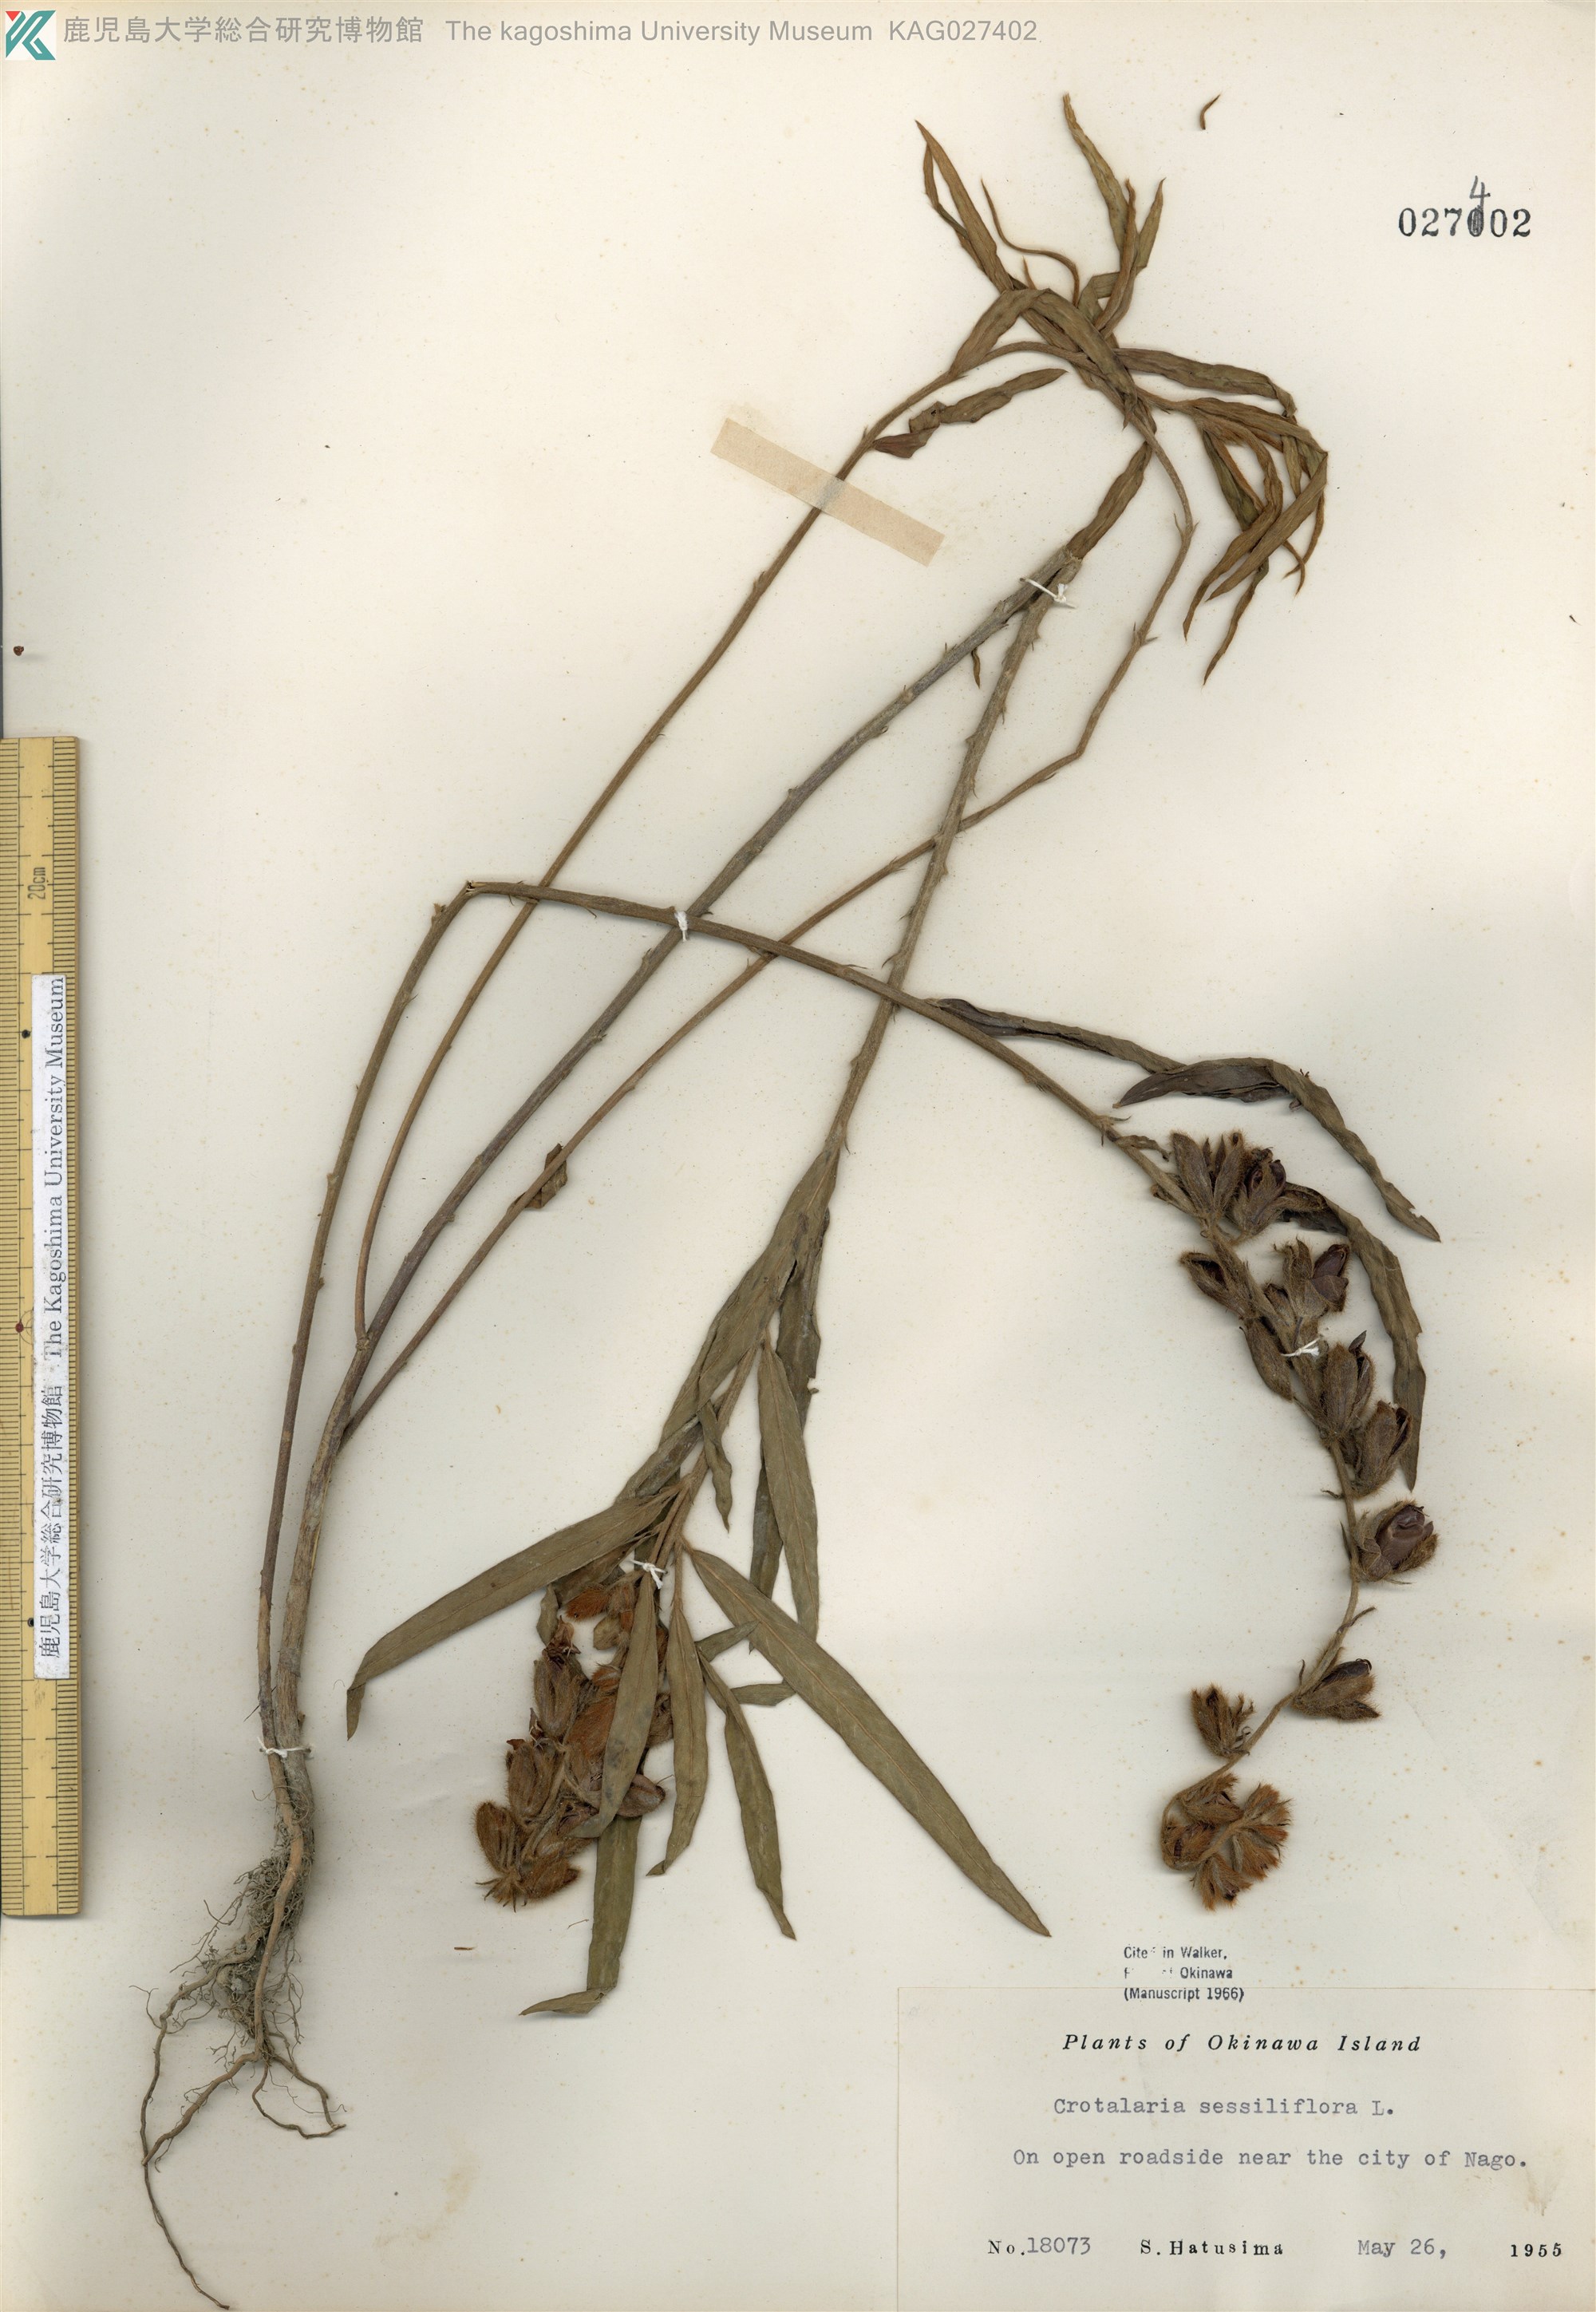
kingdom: Plantae
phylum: Tracheophyta
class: Magnoliopsida
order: Fabales
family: Fabaceae
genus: Crotalaria
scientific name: Crotalaria sessiliflora
